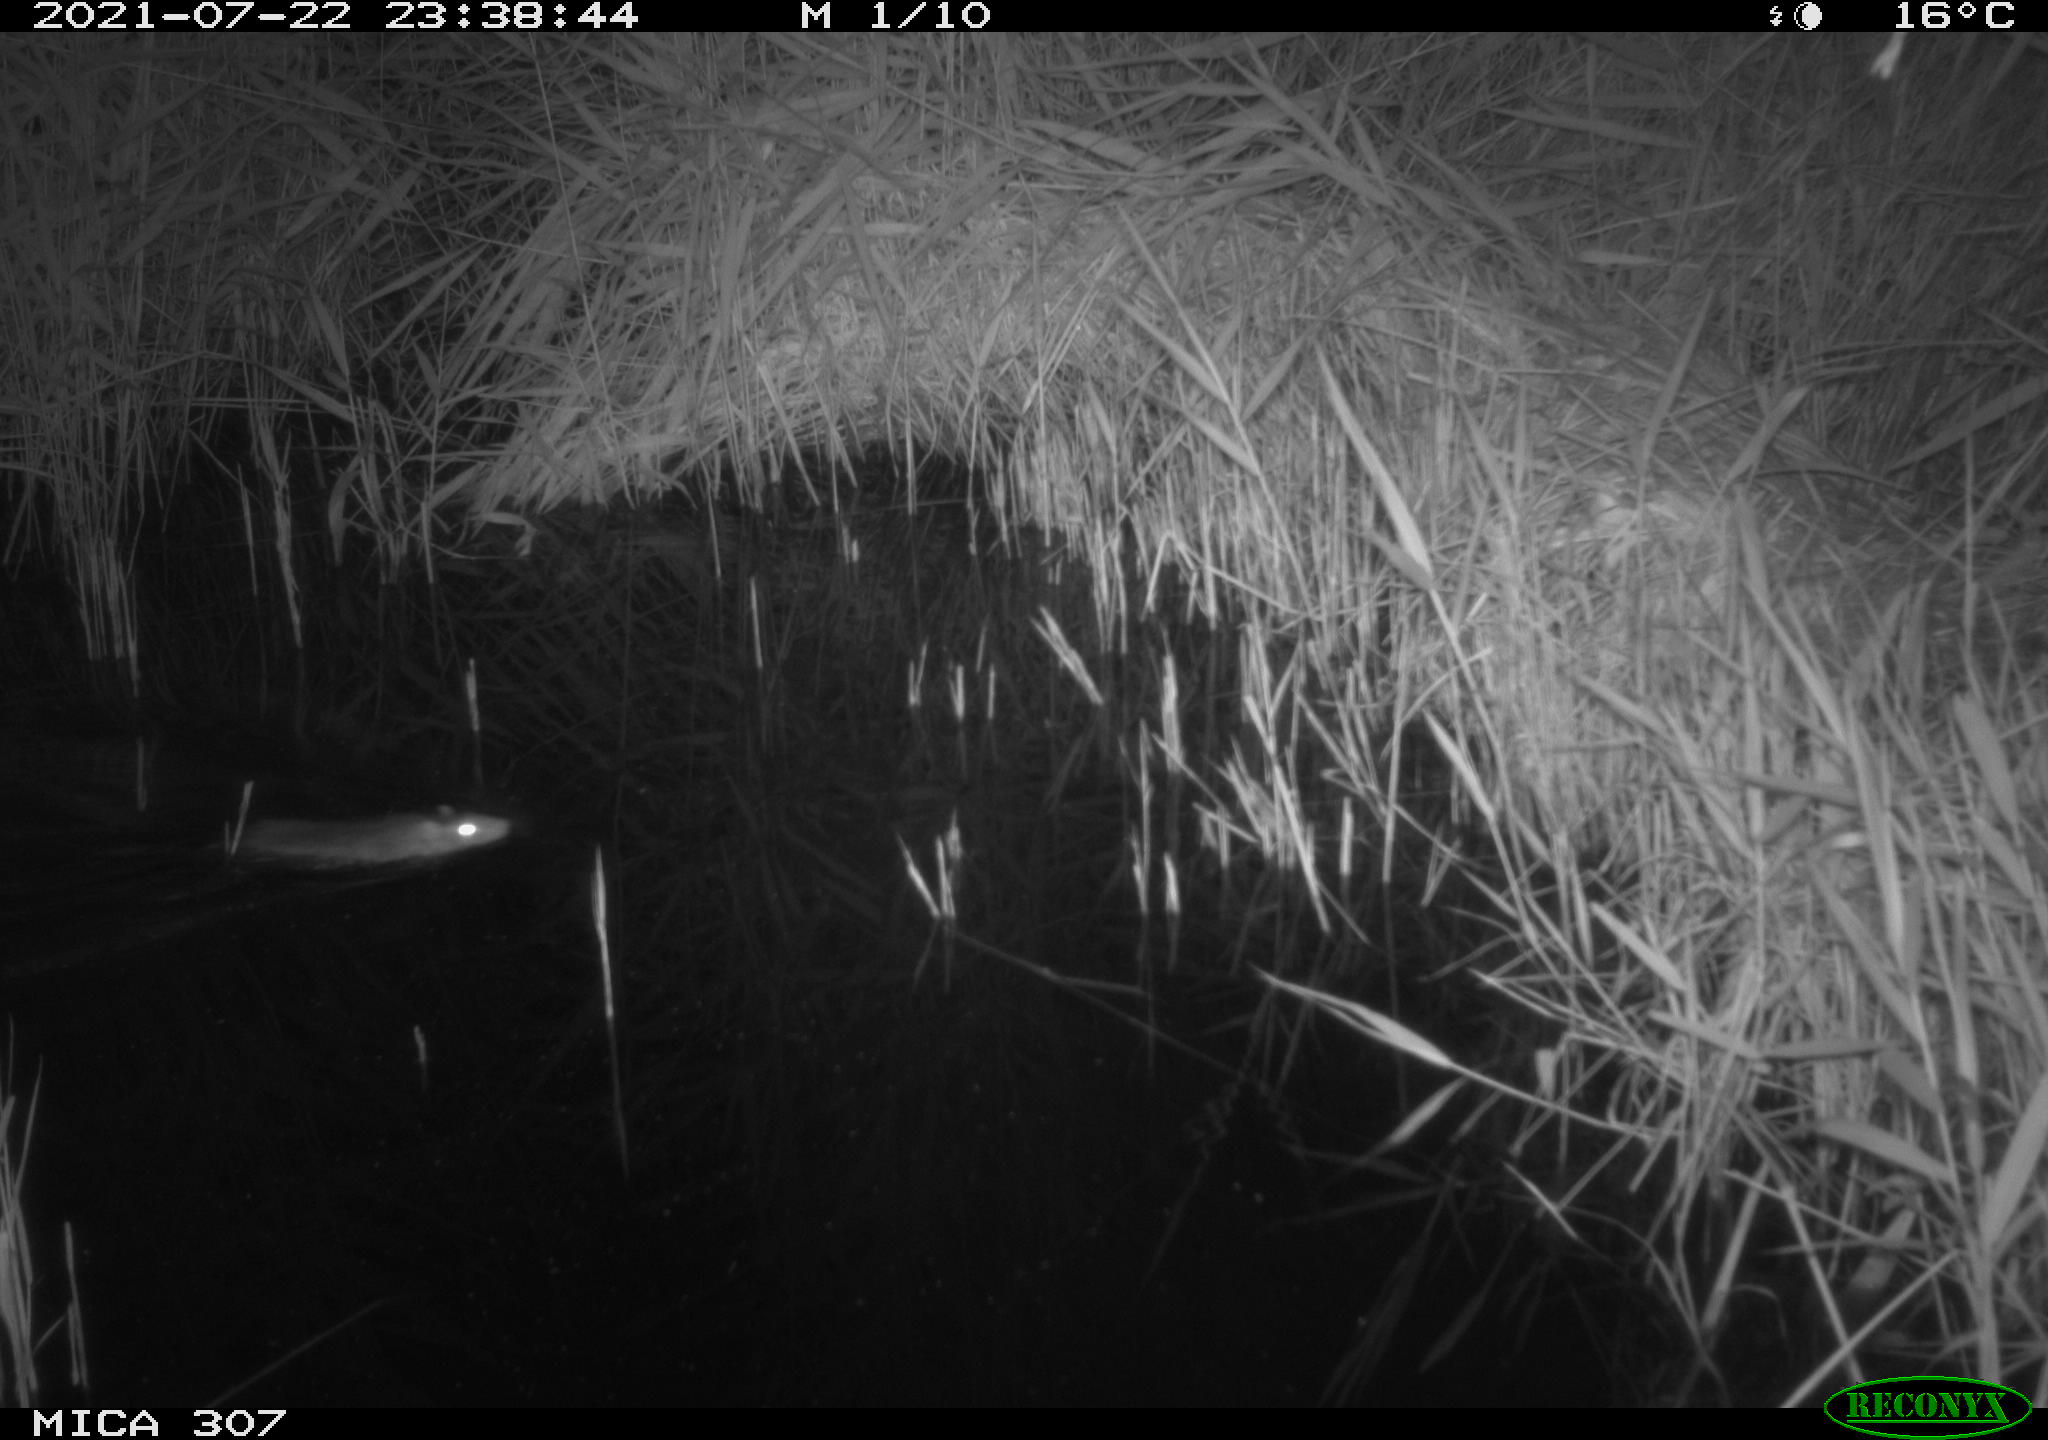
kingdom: Animalia
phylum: Chordata
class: Mammalia
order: Rodentia
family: Muridae
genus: Rattus
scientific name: Rattus norvegicus
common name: Brown rat
